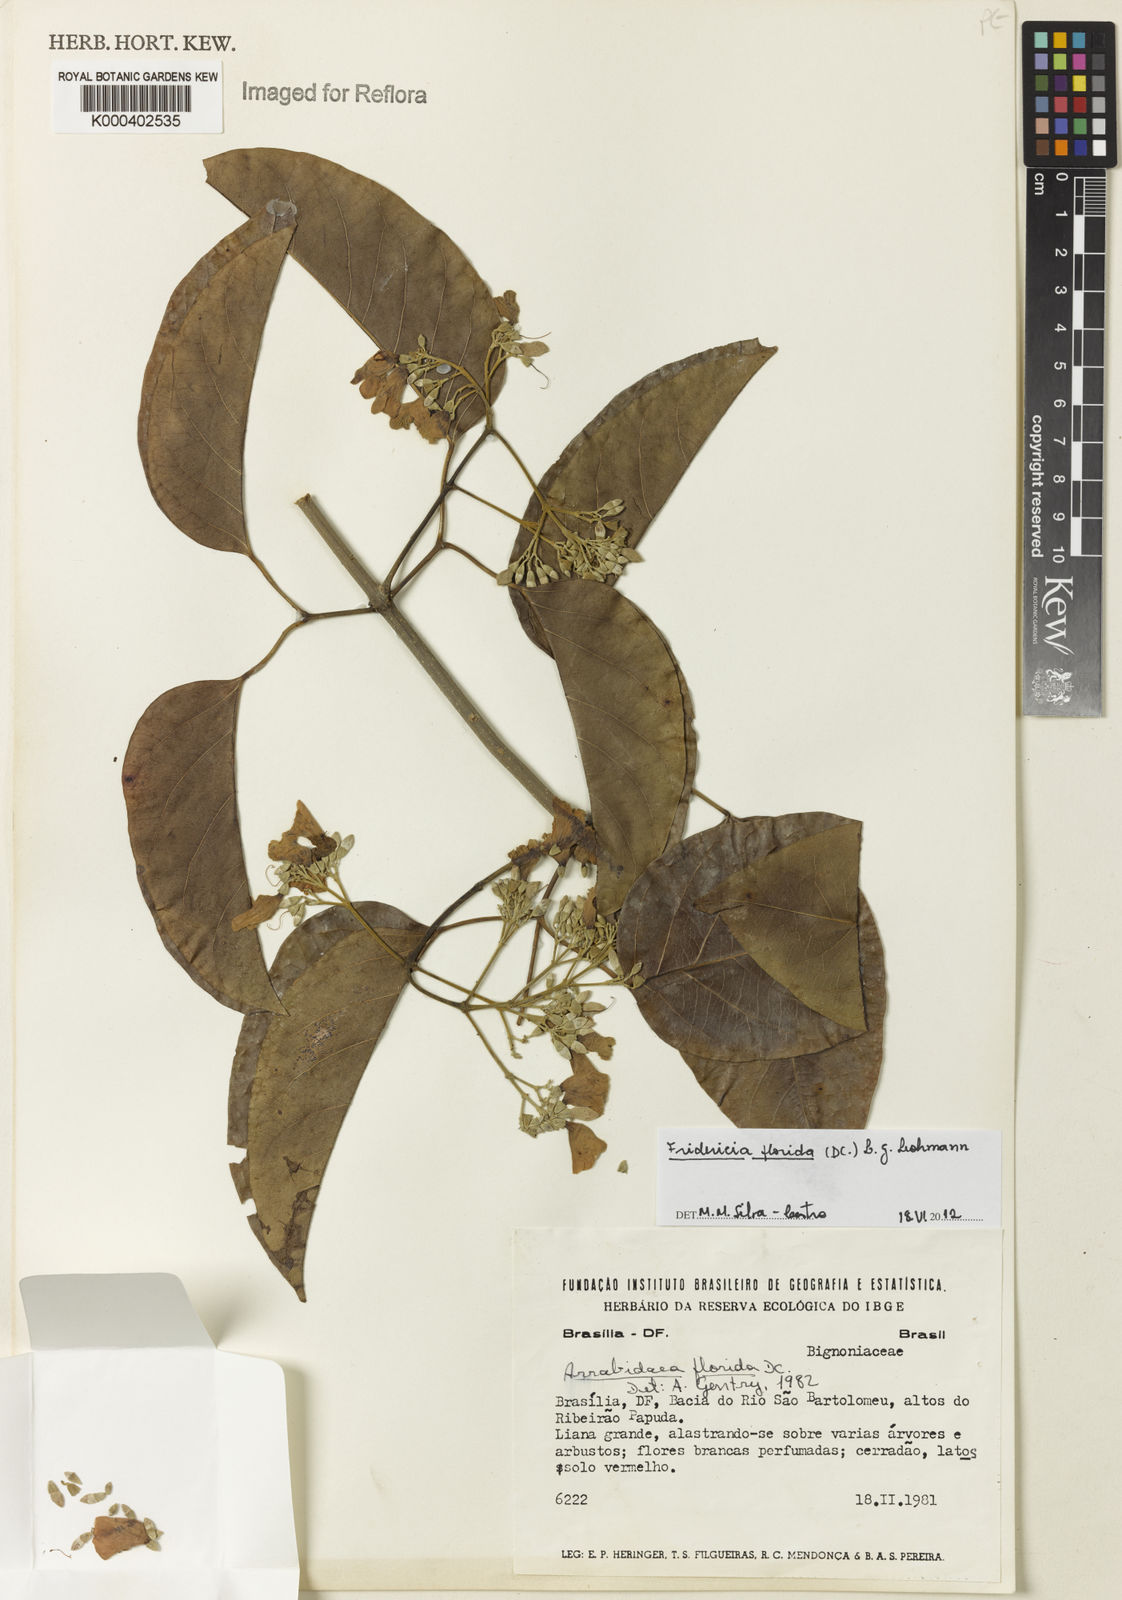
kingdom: Plantae
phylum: Tracheophyta
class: Magnoliopsida
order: Lamiales
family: Bignoniaceae
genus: Fridericia
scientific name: Fridericia florida
